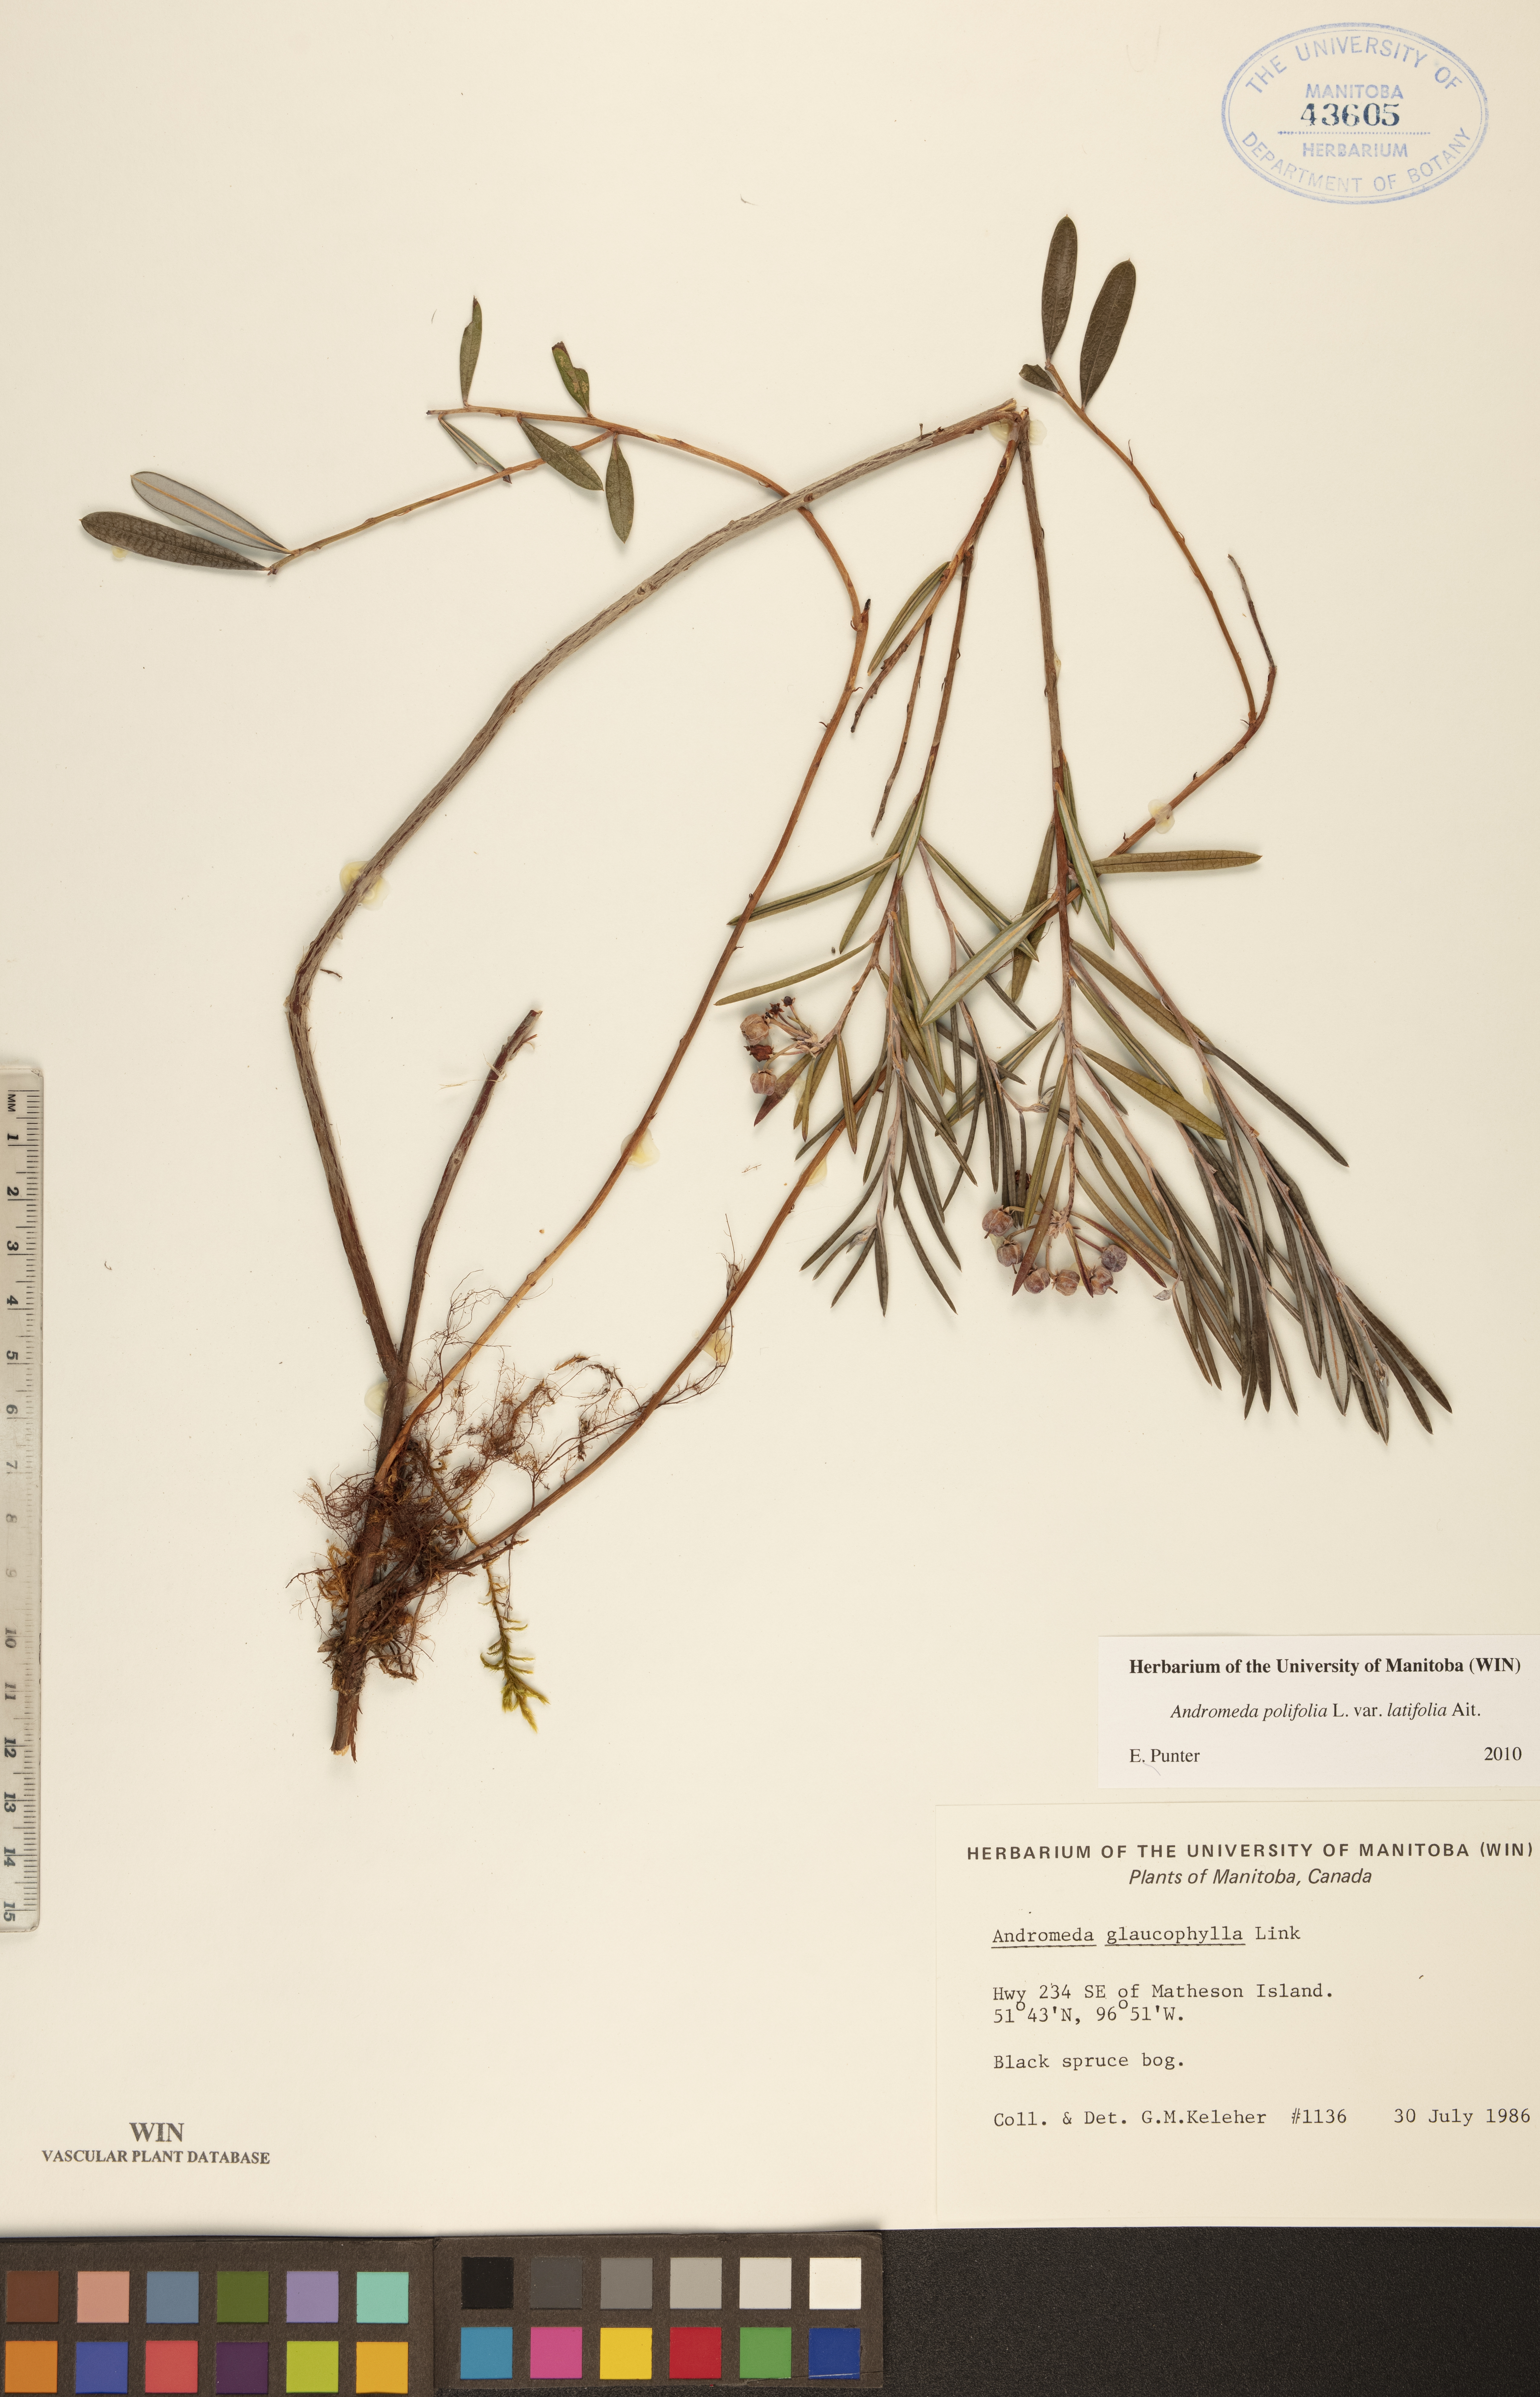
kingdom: Plantae
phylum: Tracheophyta
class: Magnoliopsida
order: Ericales
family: Ericaceae
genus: Andromeda
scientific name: Andromeda polifolia
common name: Bog-rosemary
